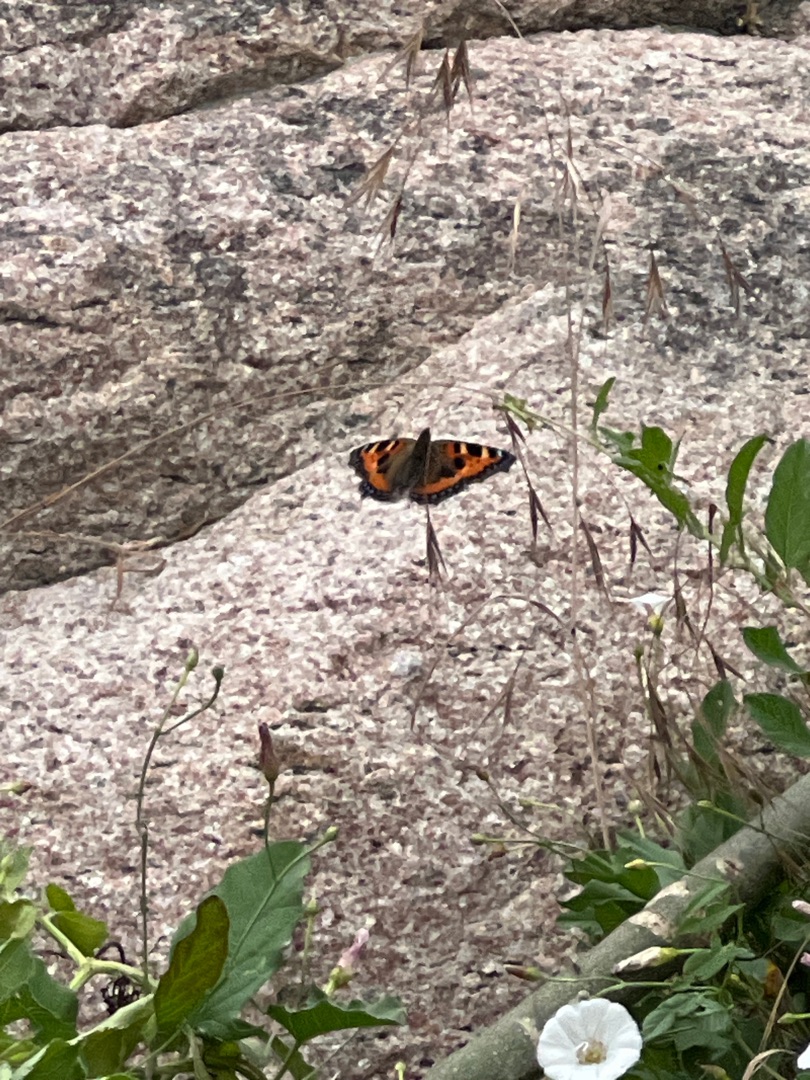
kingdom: Animalia
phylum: Arthropoda
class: Insecta
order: Lepidoptera
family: Nymphalidae
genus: Aglais
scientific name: Aglais urticae
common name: Nældens takvinge
